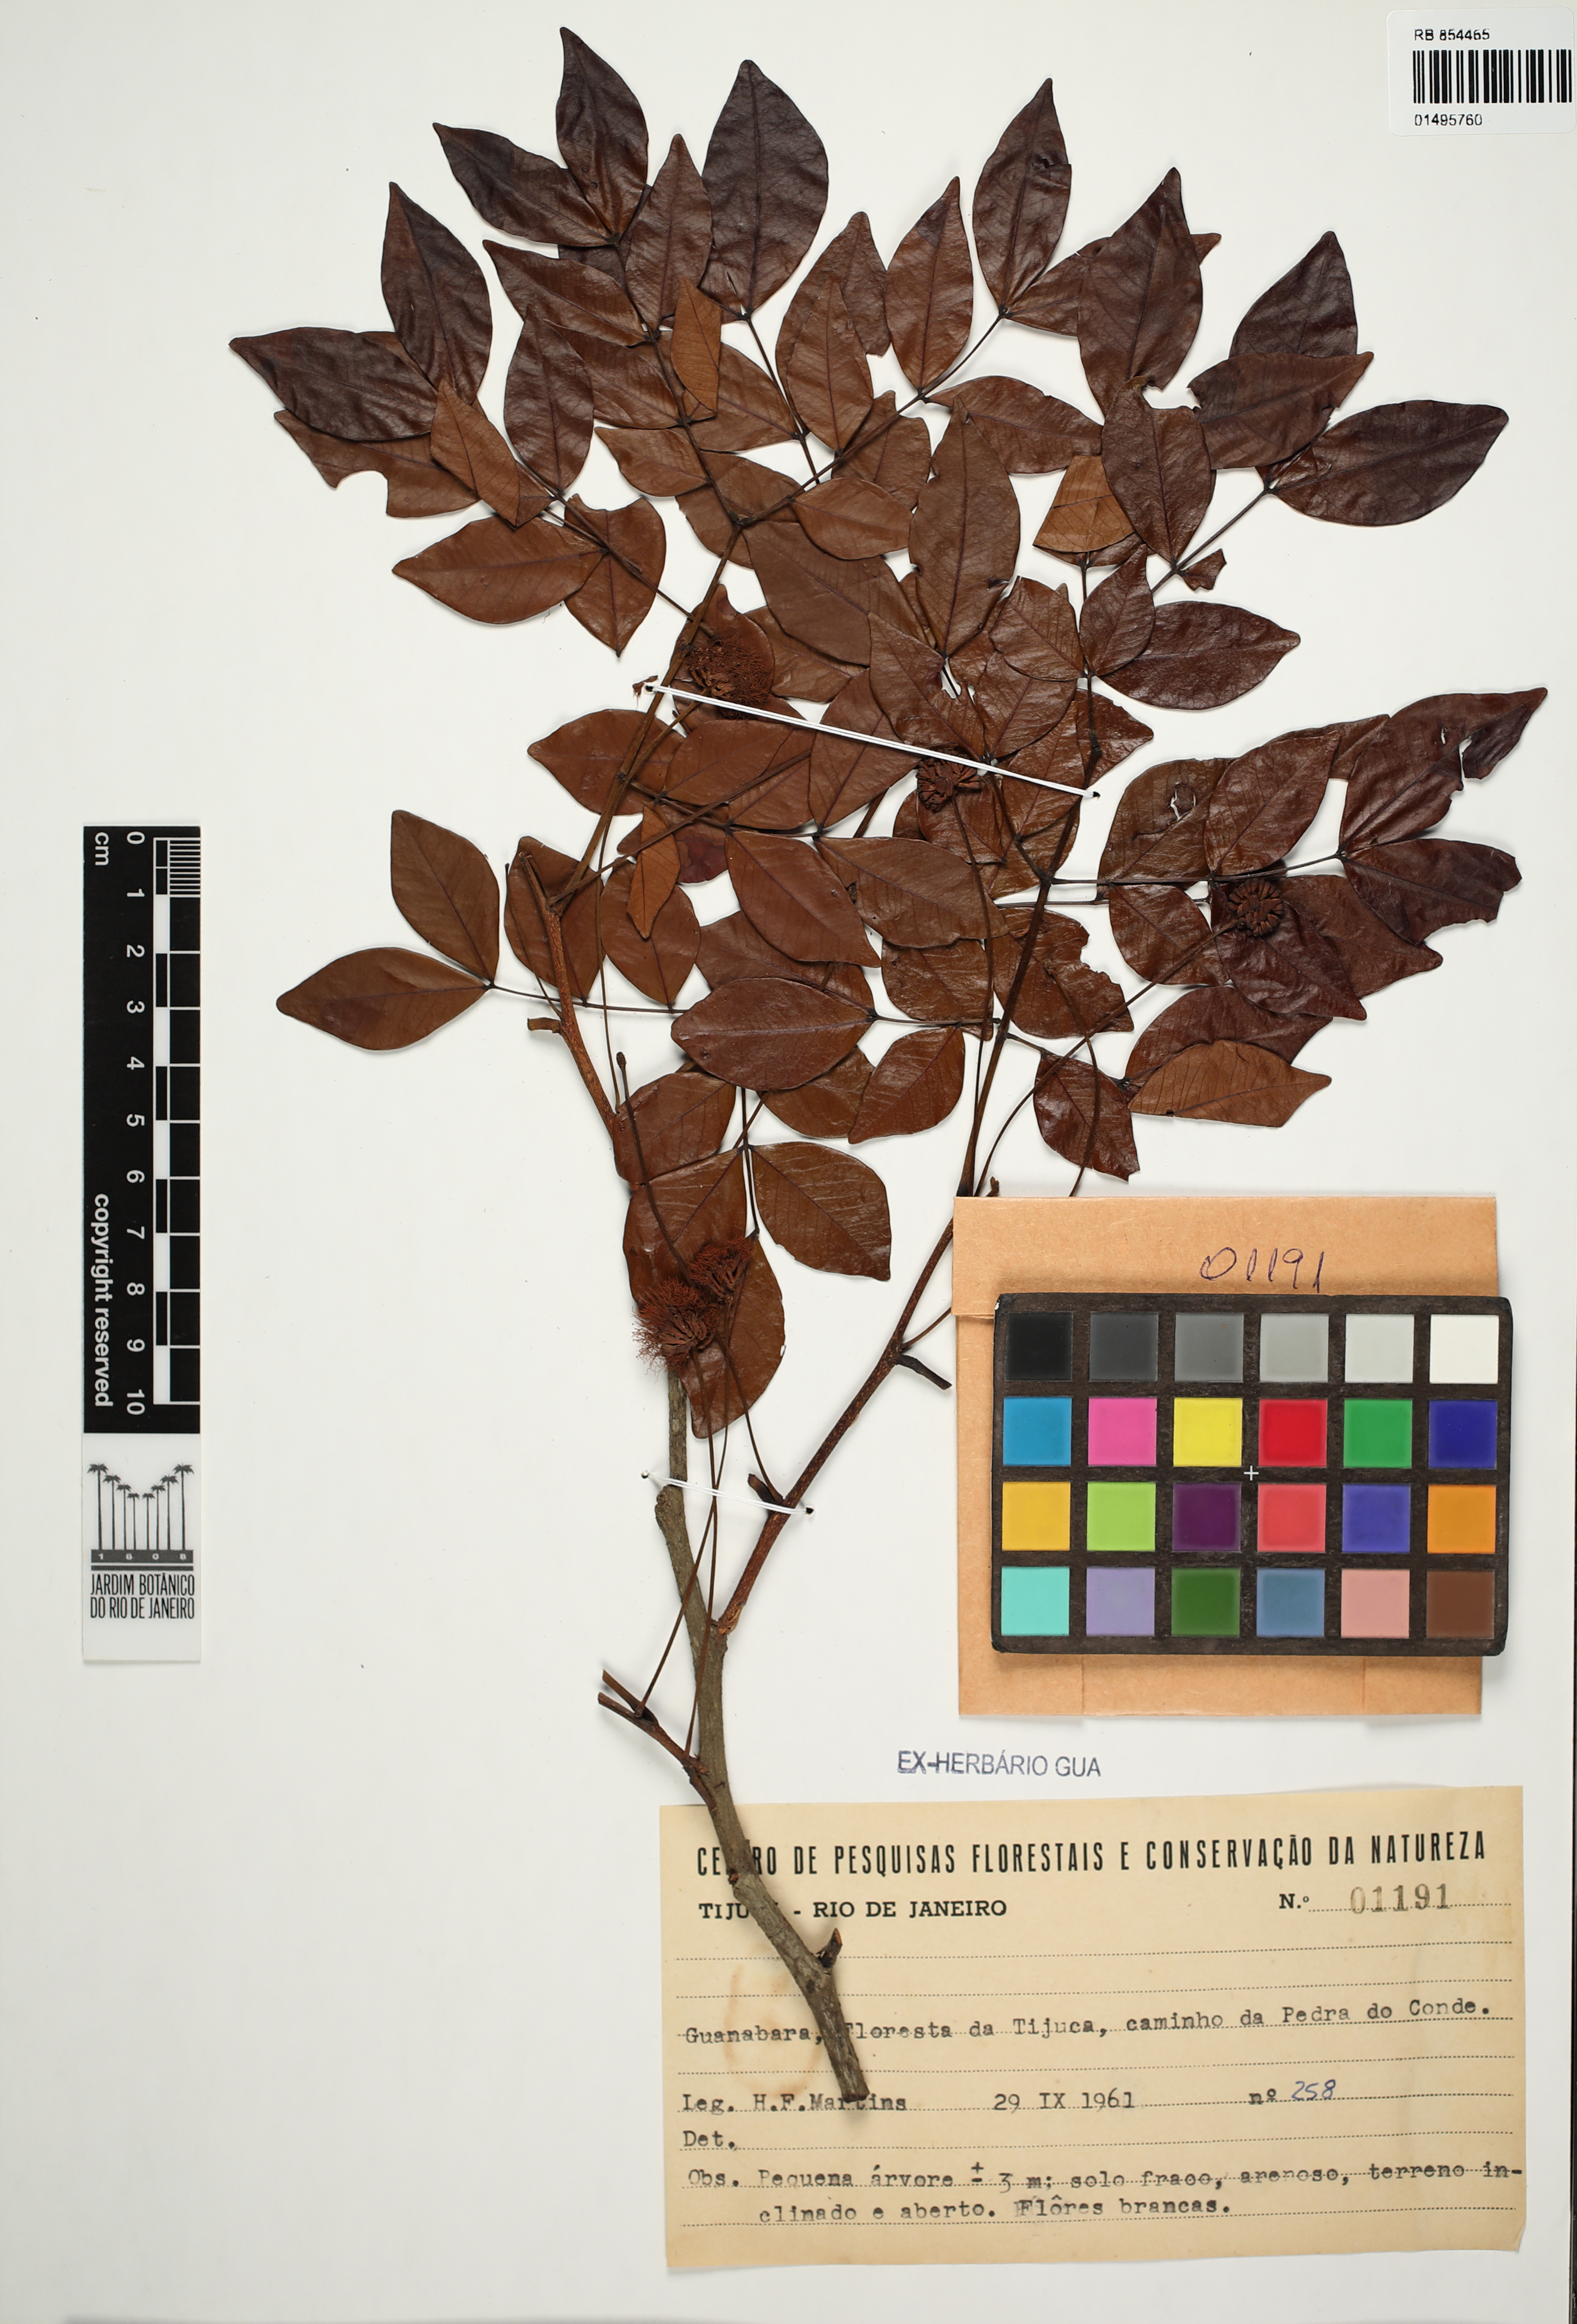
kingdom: Plantae
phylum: Tracheophyta
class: Magnoliopsida
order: Fabales
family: Fabaceae
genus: Abarema
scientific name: Abarema cochliacarpos
